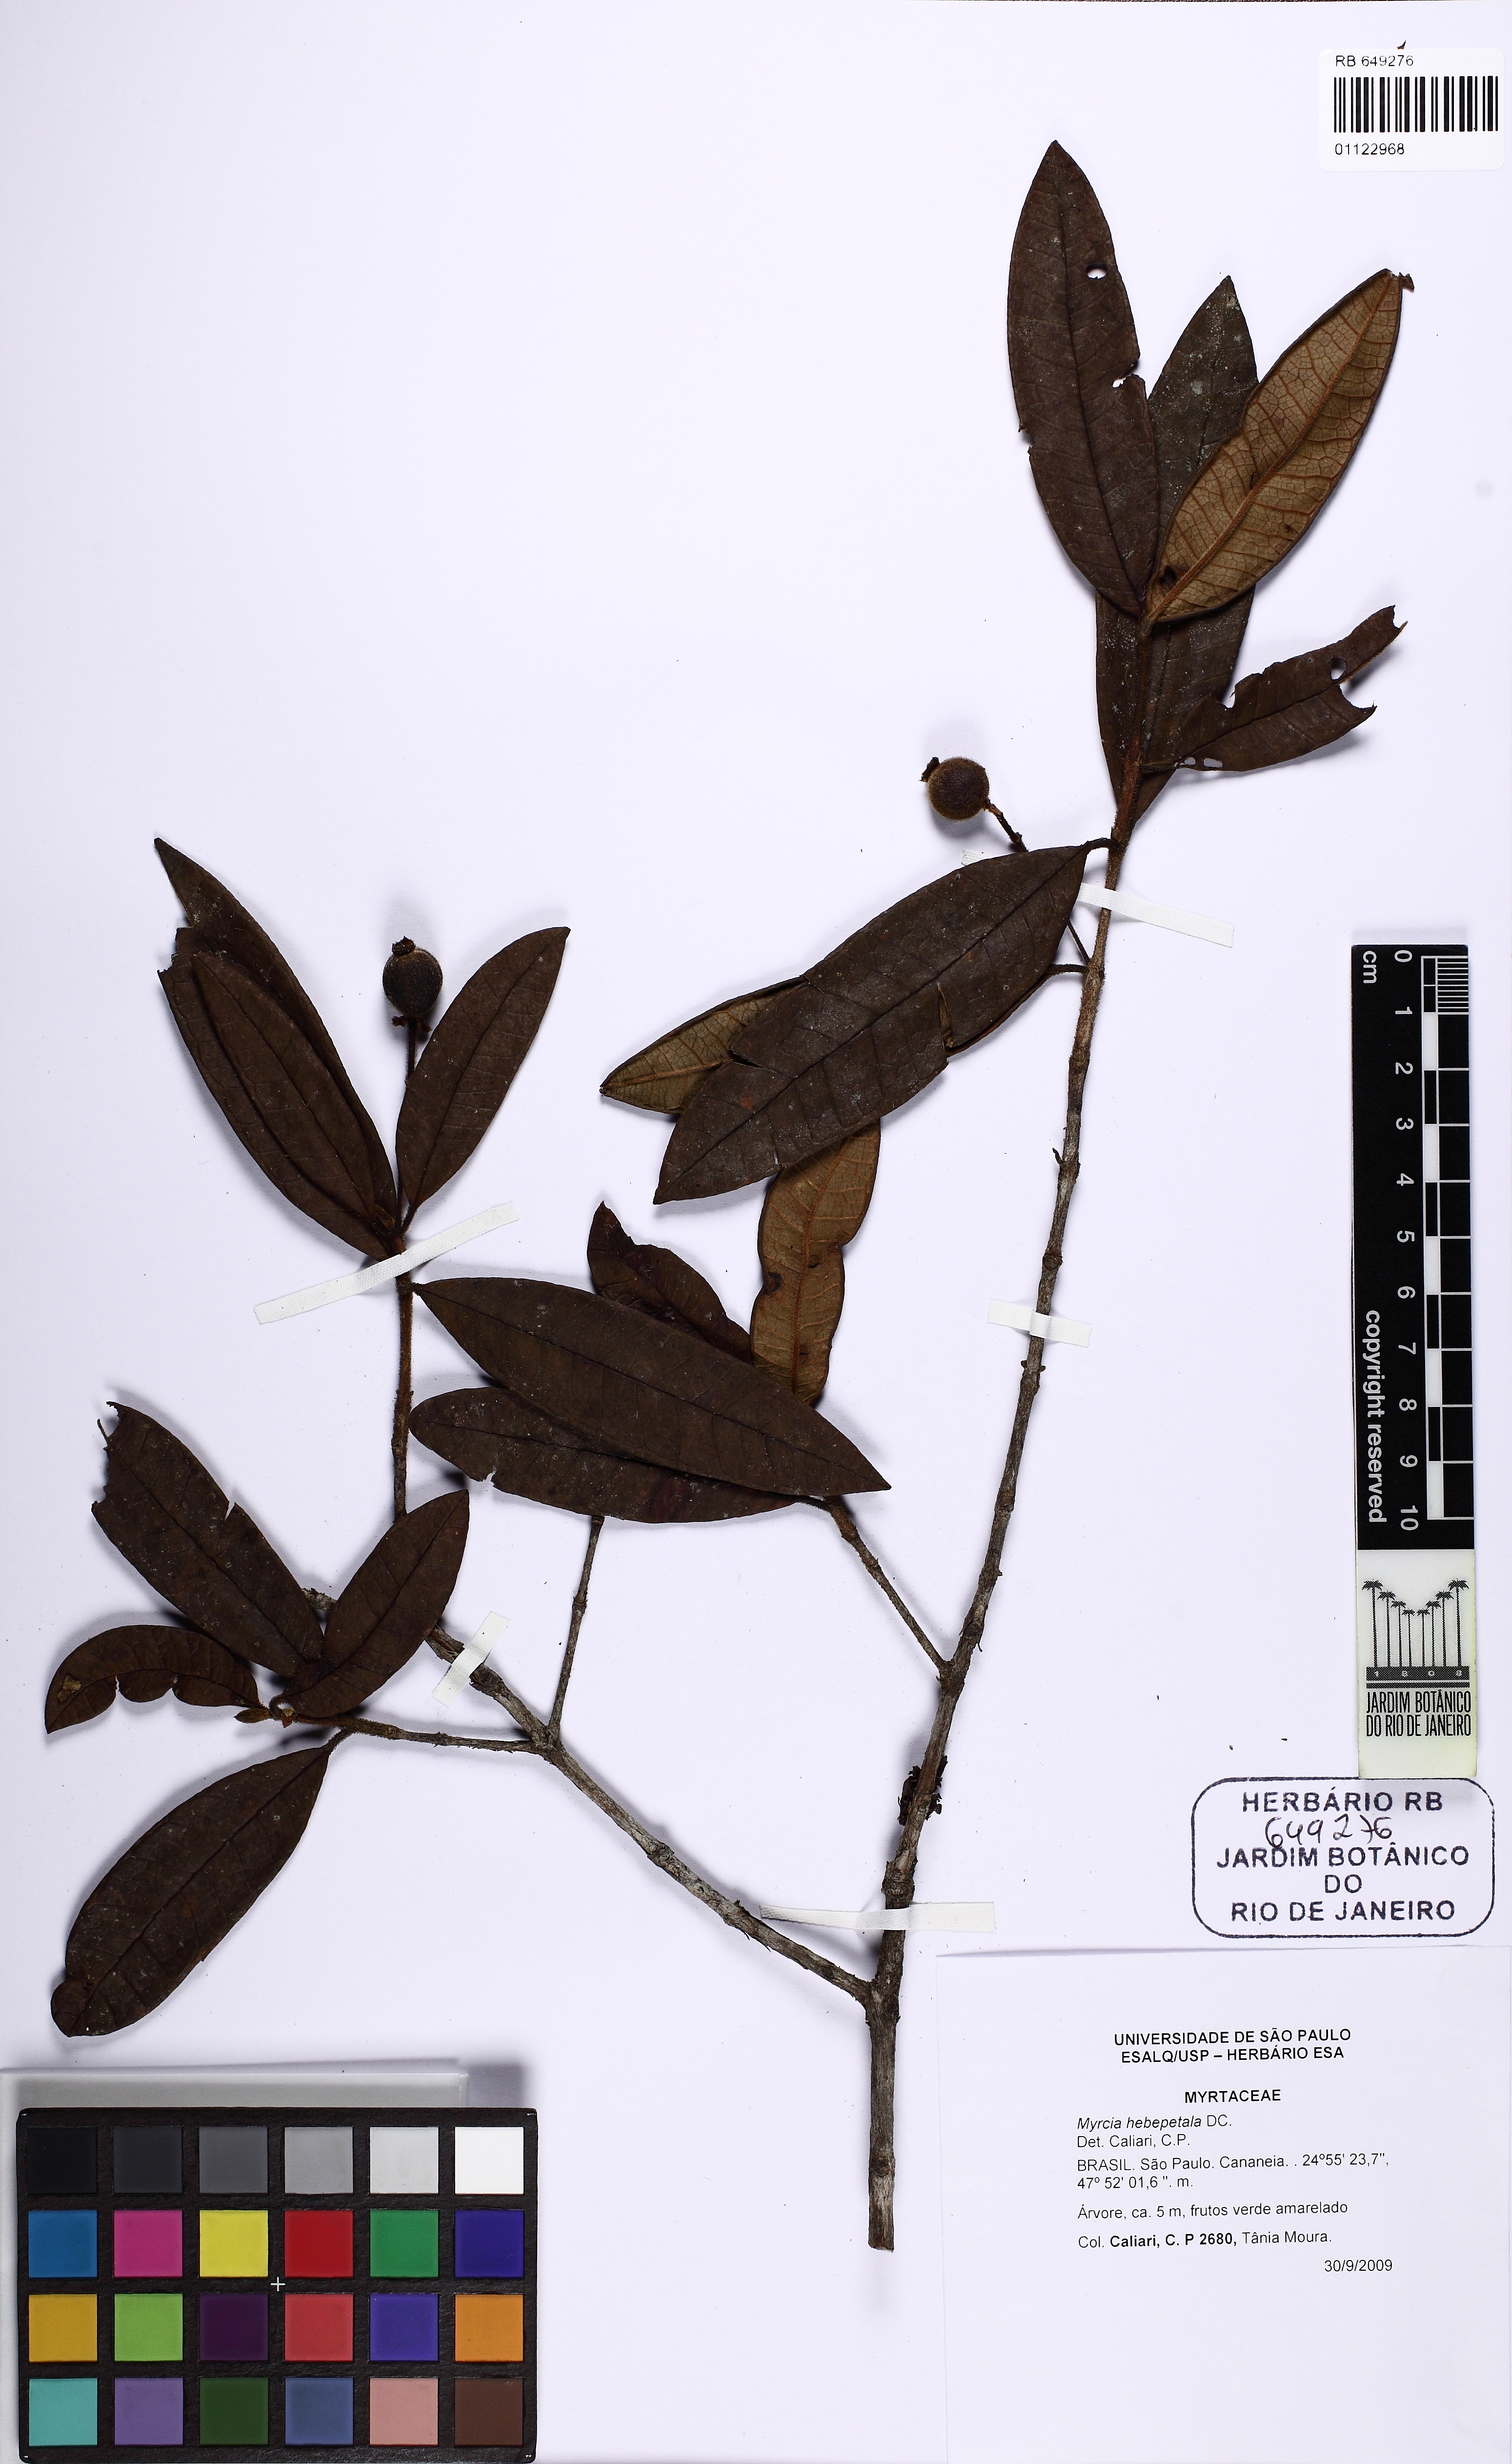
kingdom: Plantae
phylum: Tracheophyta
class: Magnoliopsida
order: Myrtales
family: Myrtaceae
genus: Myrcia
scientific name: Myrcia hebepetala
